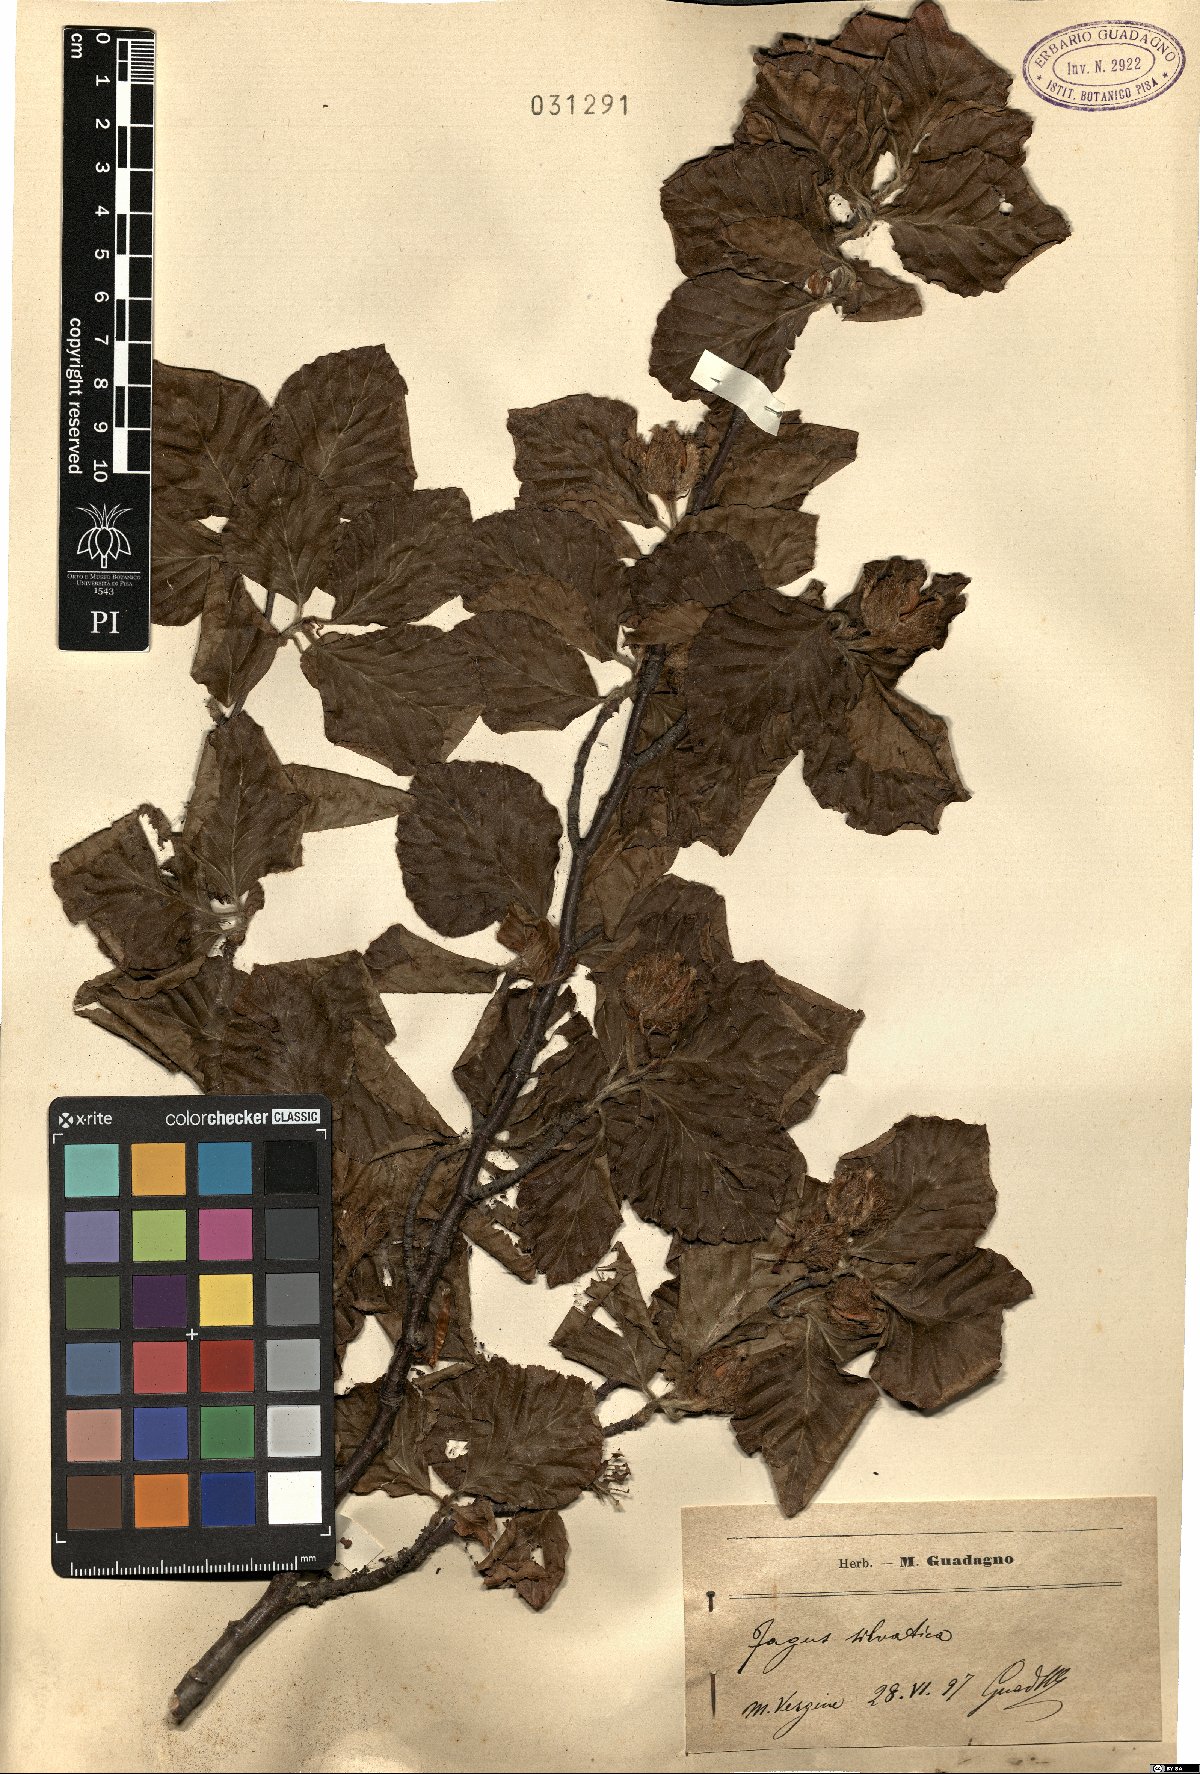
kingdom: Plantae
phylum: Tracheophyta
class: Magnoliopsida
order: Fagales
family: Fagaceae
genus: Fagus
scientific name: Fagus sylvatica
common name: Beech
